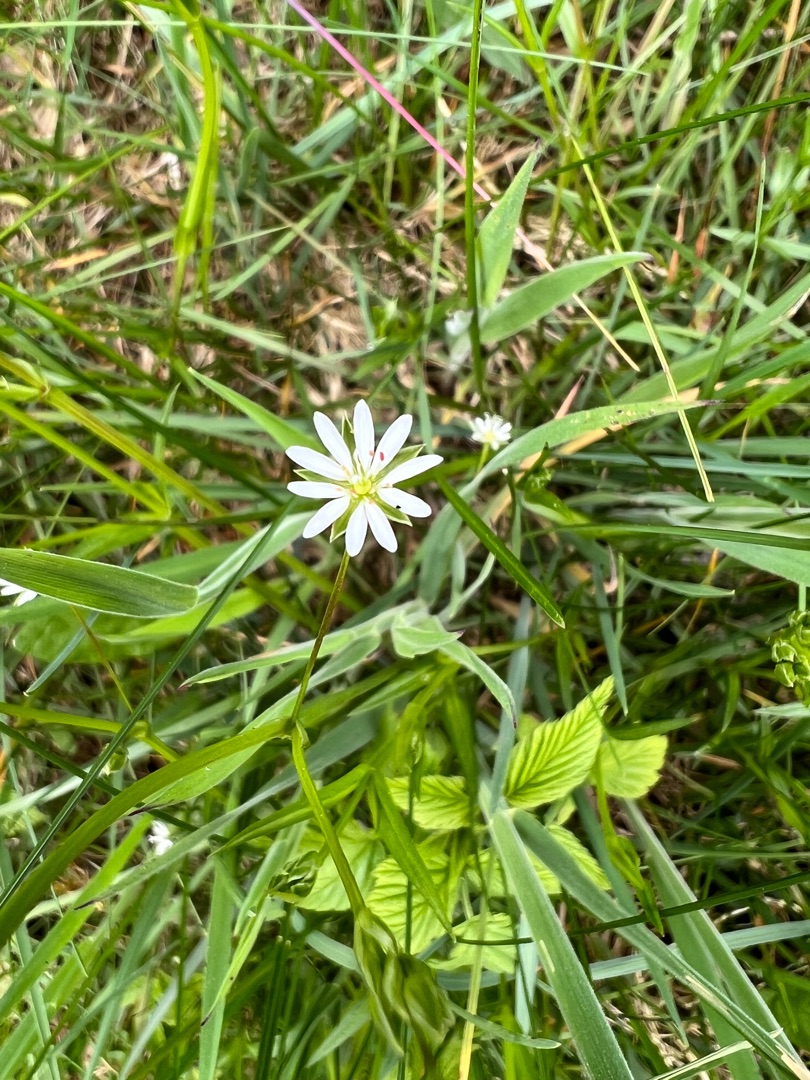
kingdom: Plantae
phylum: Tracheophyta
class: Magnoliopsida
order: Caryophyllales
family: Caryophyllaceae
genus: Stellaria
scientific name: Stellaria graminea
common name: Græsbladet fladstjerne
